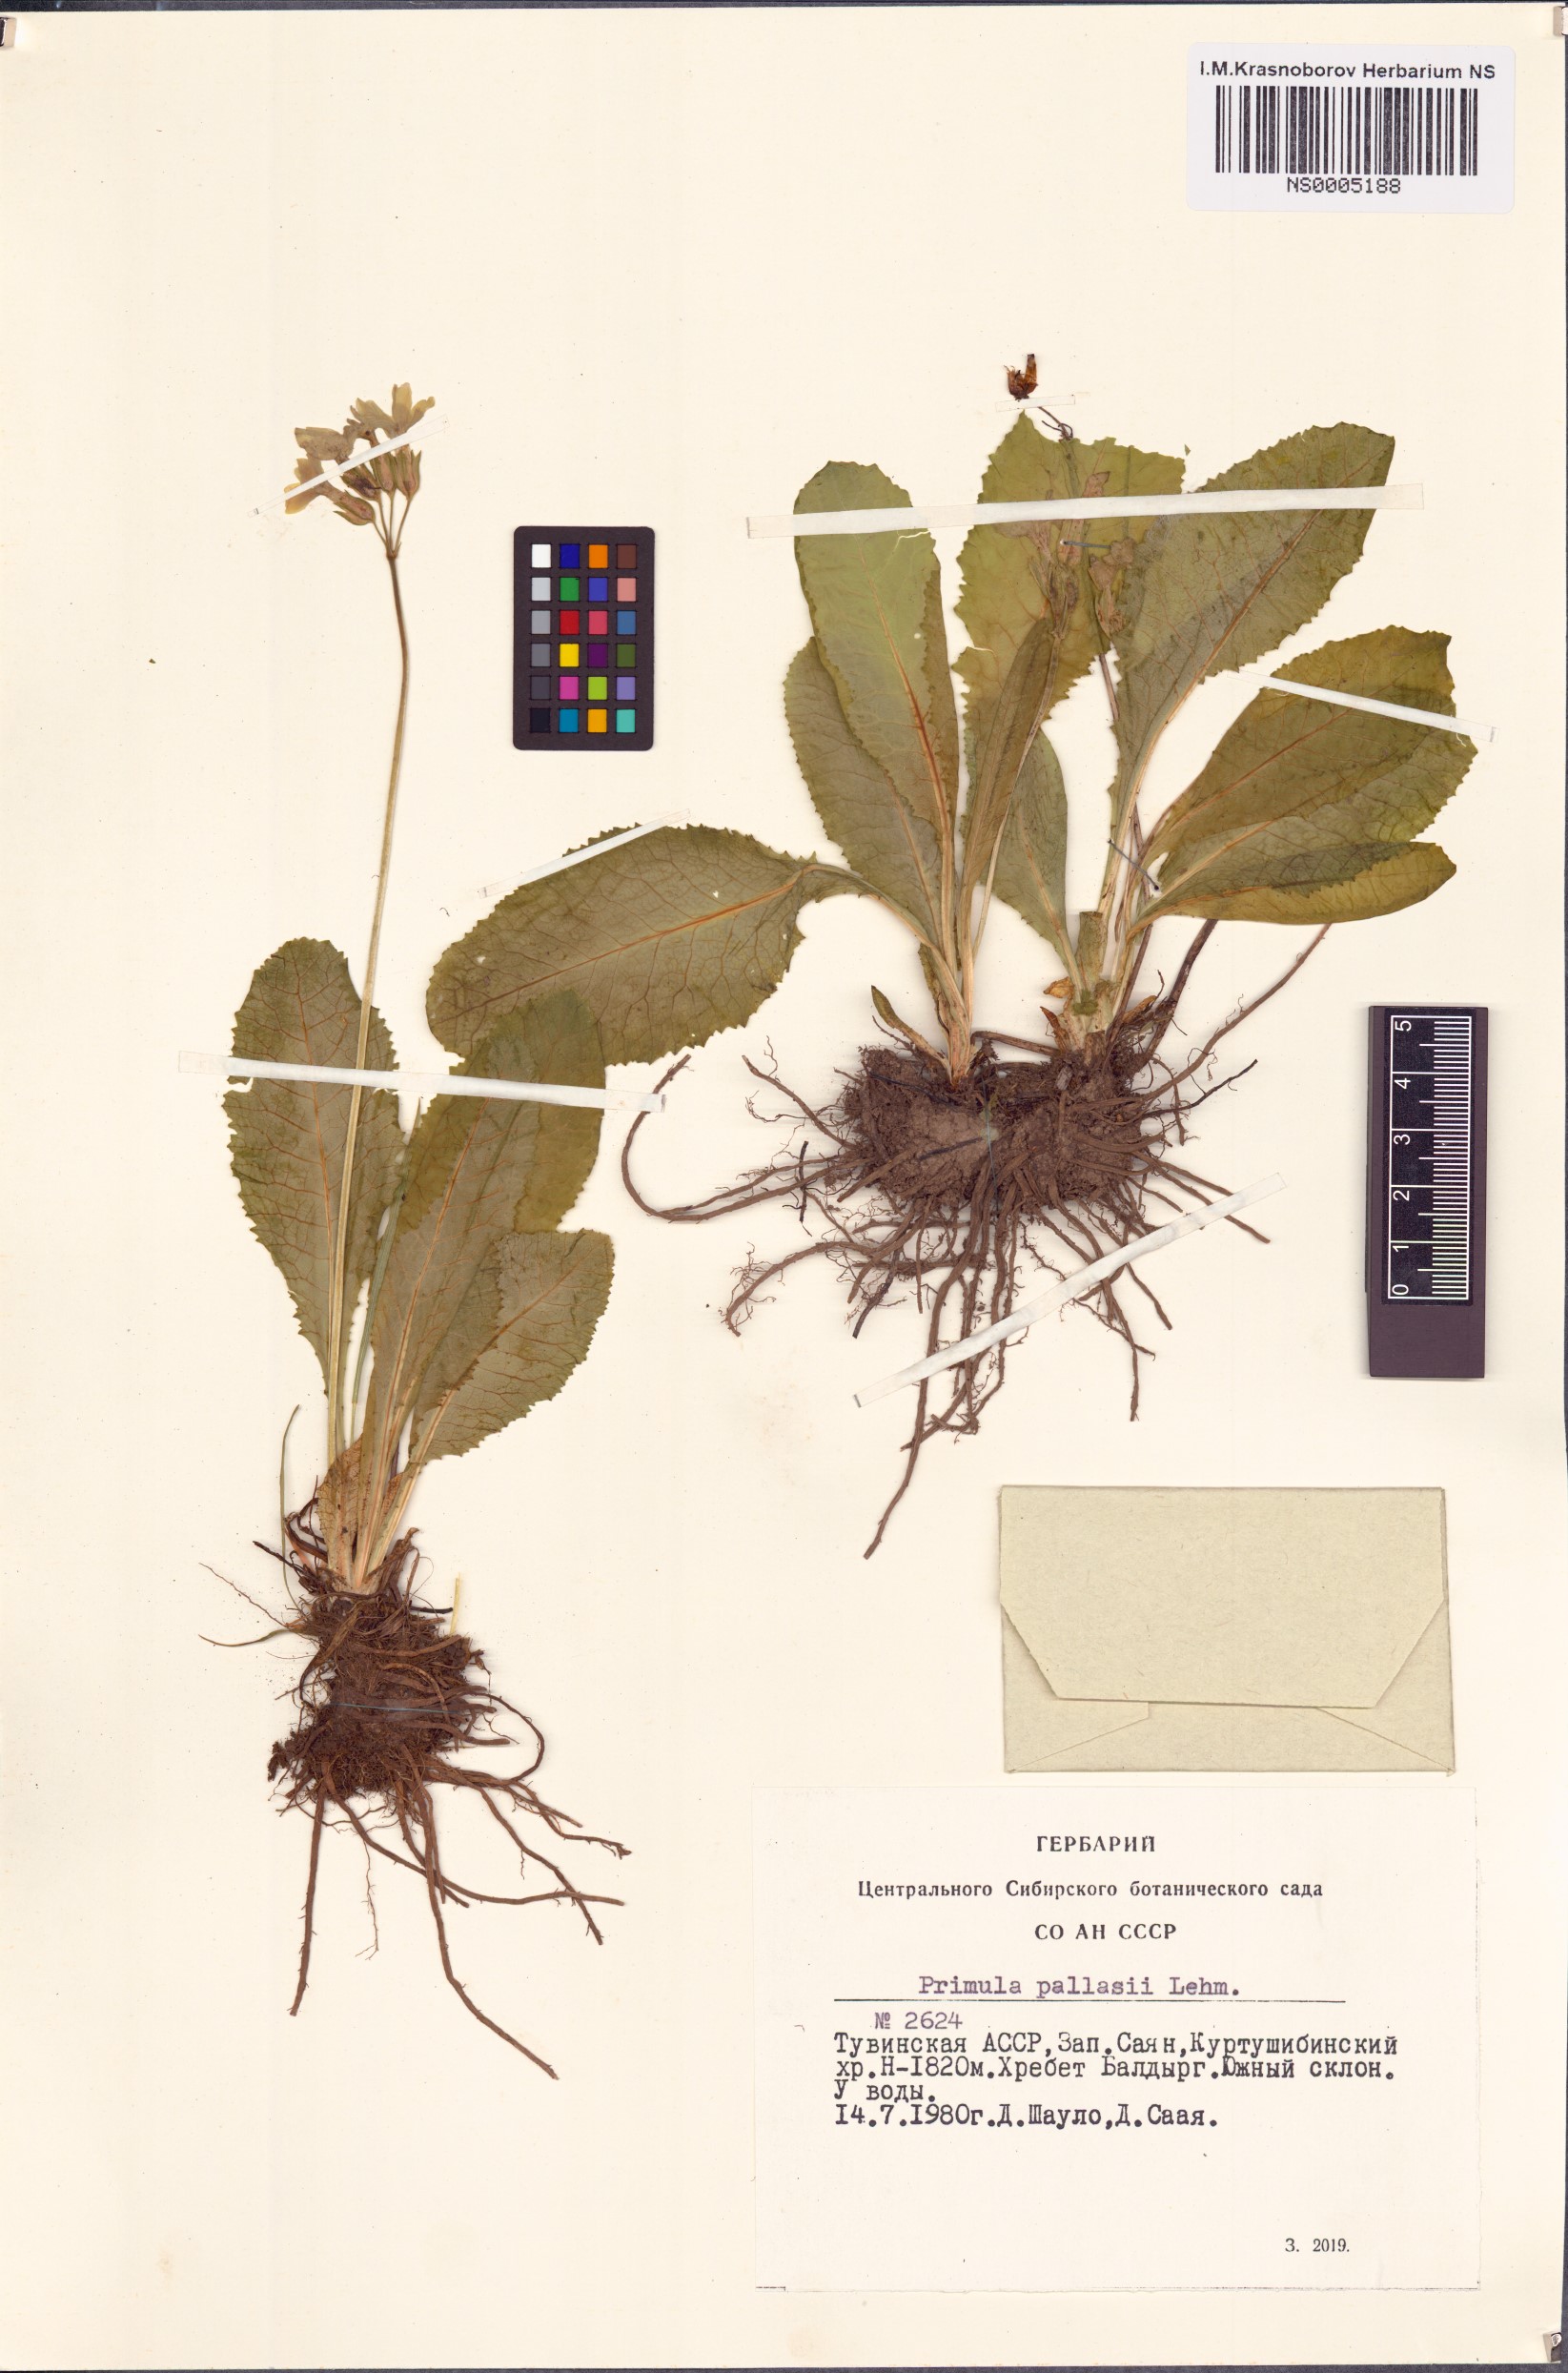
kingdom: Plantae
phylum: Tracheophyta
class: Magnoliopsida
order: Ericales
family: Primulaceae
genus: Primula
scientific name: Primula elatior
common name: Oxlip
